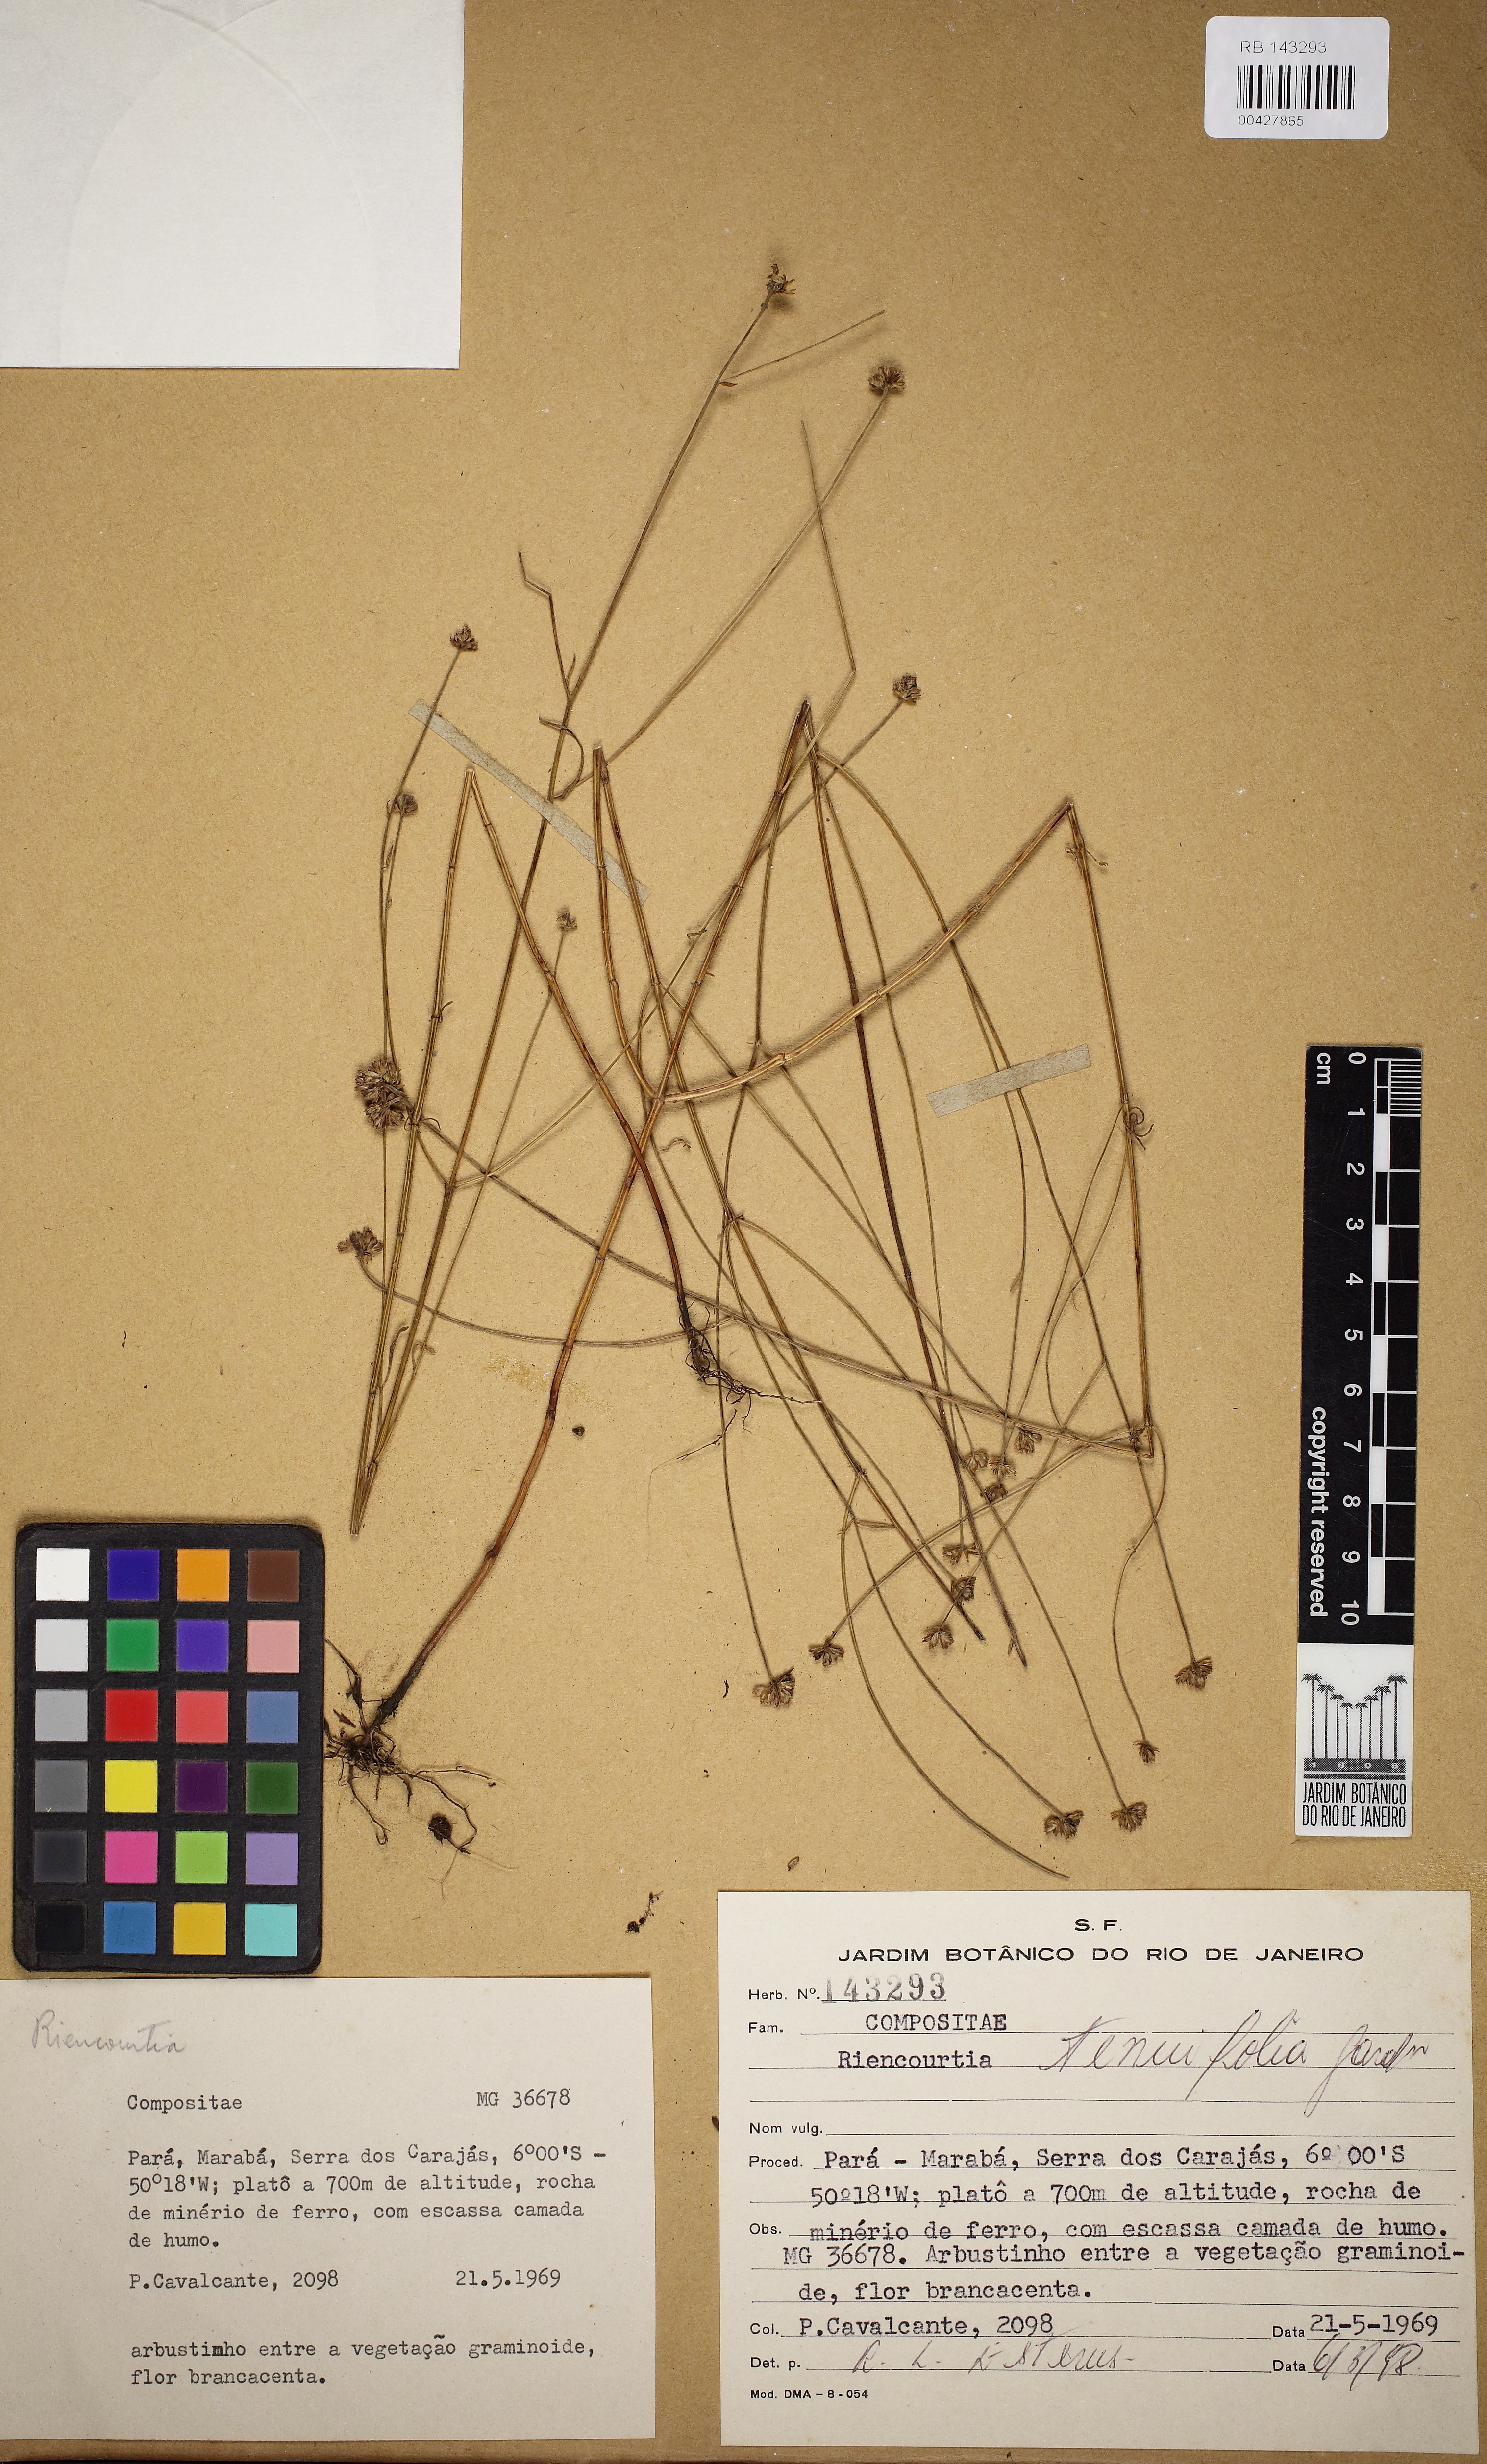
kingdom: Plantae
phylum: Tracheophyta
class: Magnoliopsida
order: Asterales
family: Asteraceae
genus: Riencourtia
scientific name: Riencourtia tenuifolia
